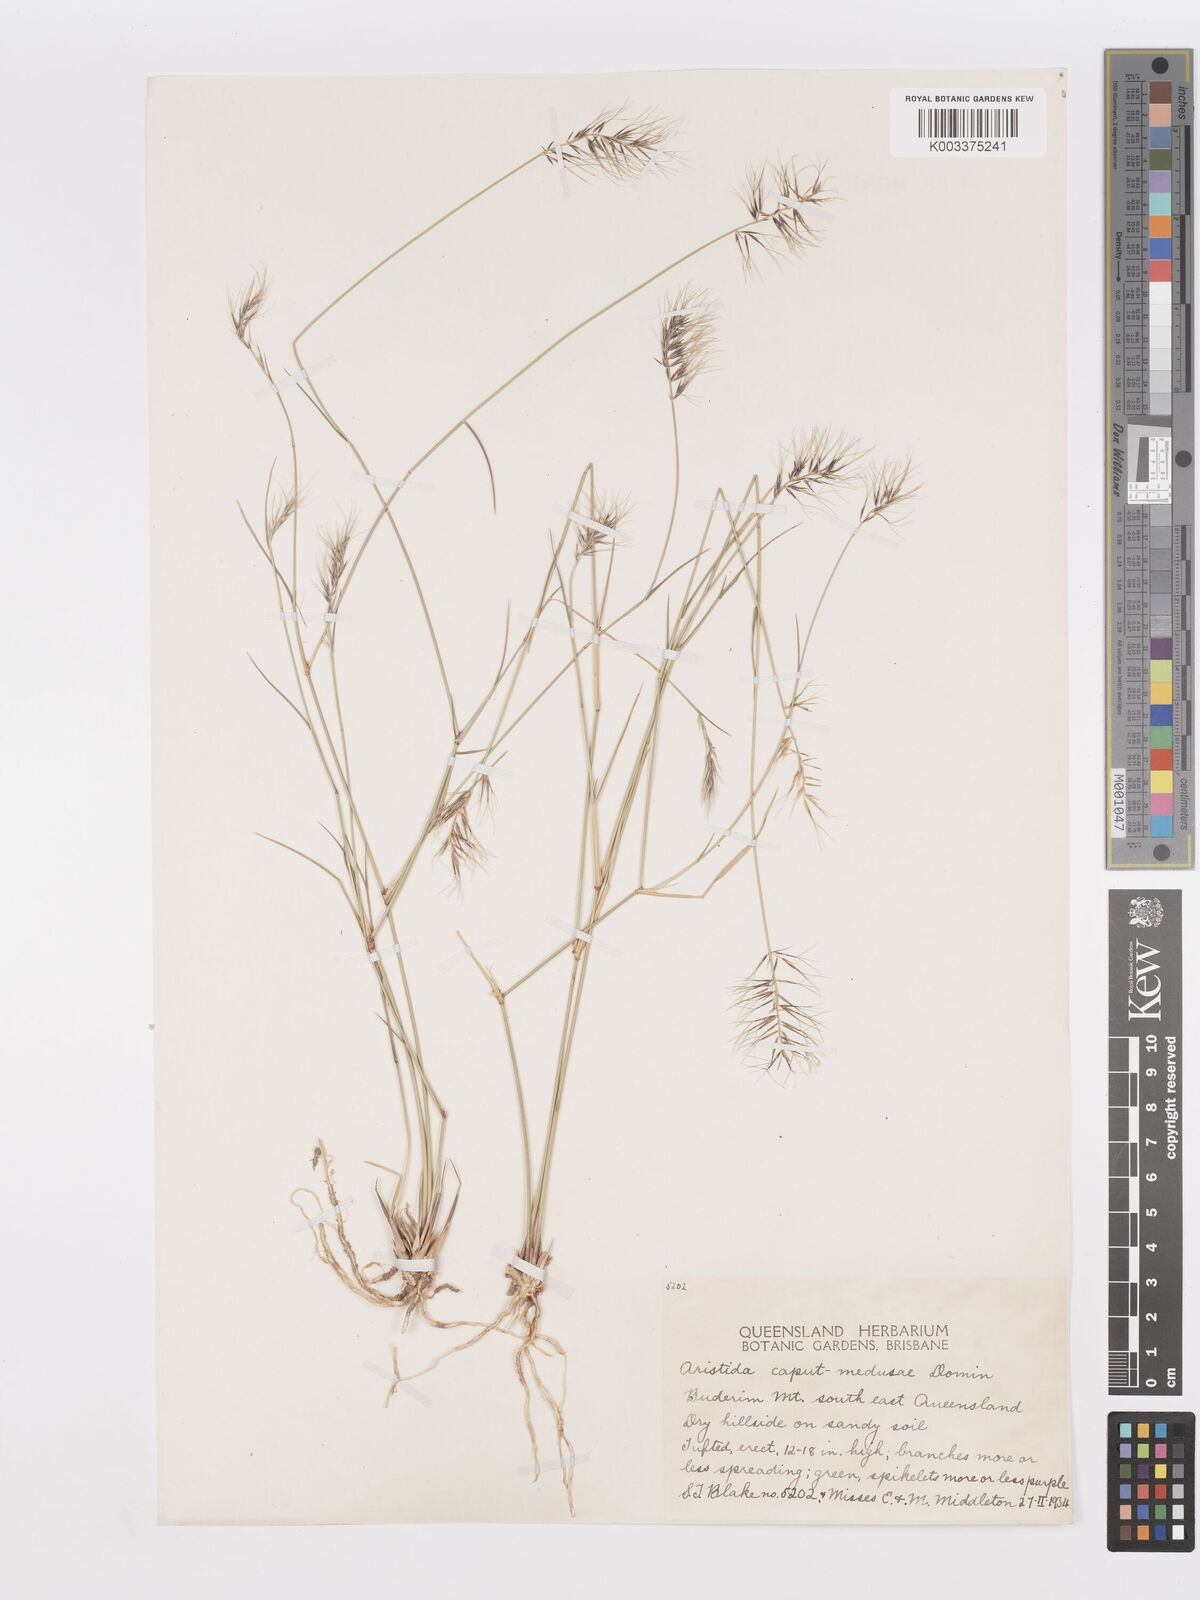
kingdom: Plantae
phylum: Tracheophyta
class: Liliopsida
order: Poales
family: Poaceae
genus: Aristida
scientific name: Aristida caput-medusae
